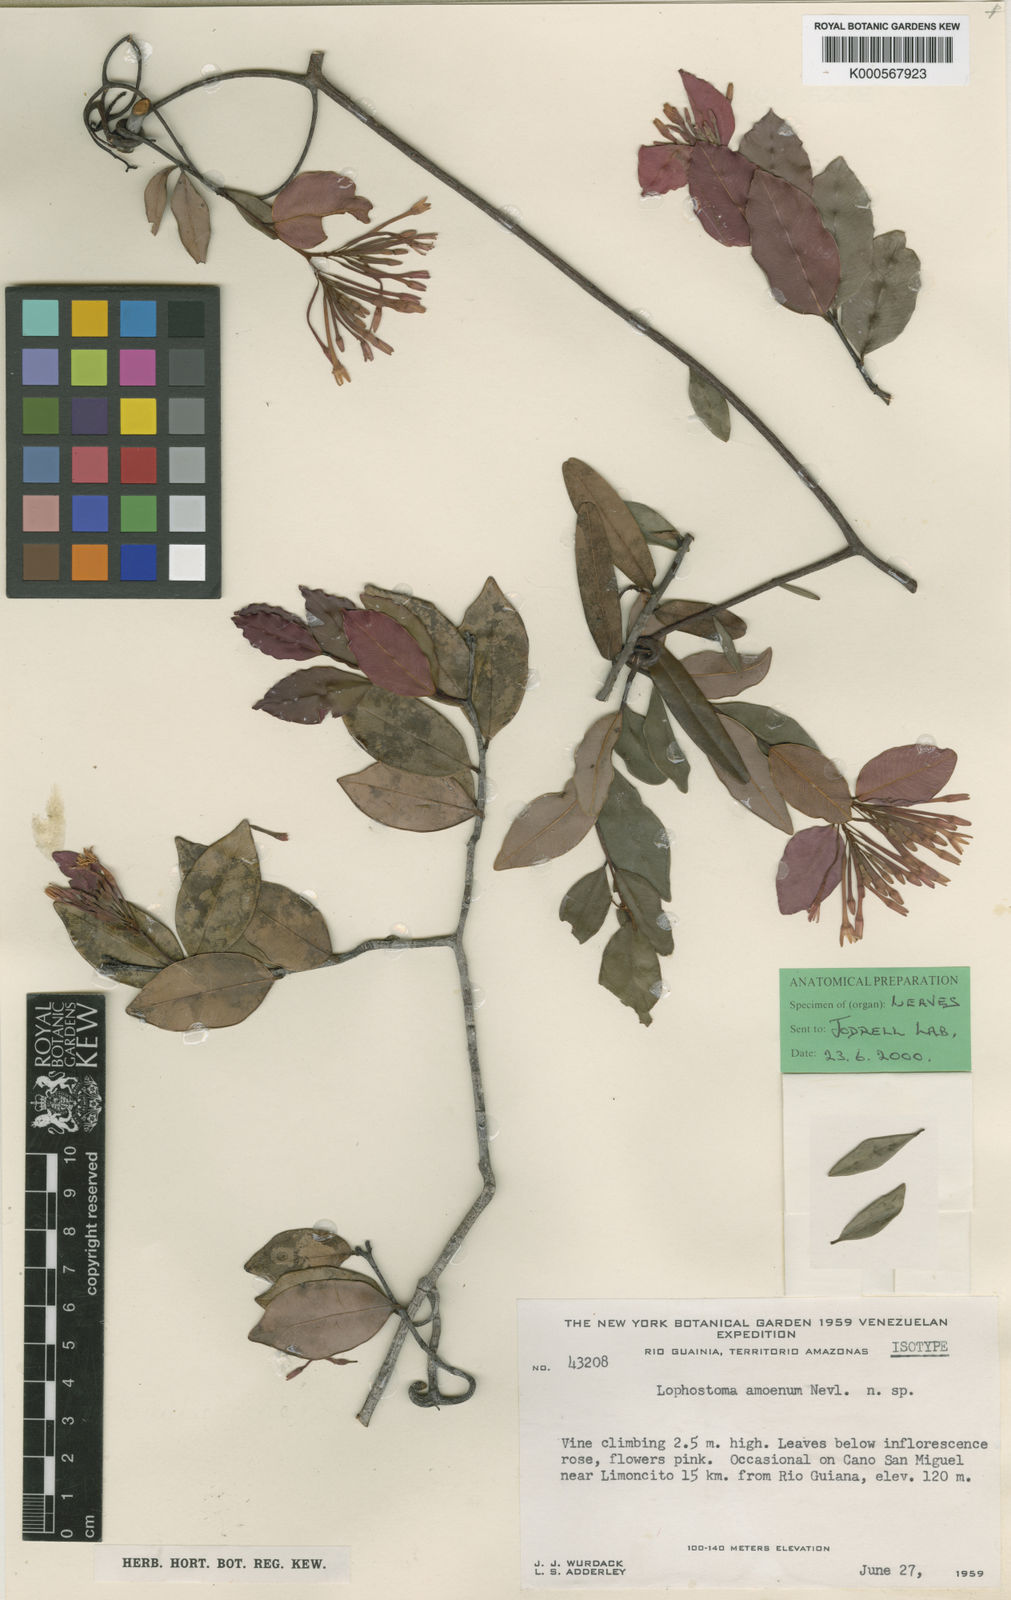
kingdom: Plantae
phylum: Tracheophyta
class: Magnoliopsida
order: Malvales
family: Thymelaeaceae
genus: Lophostoma
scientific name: Lophostoma amoenum
